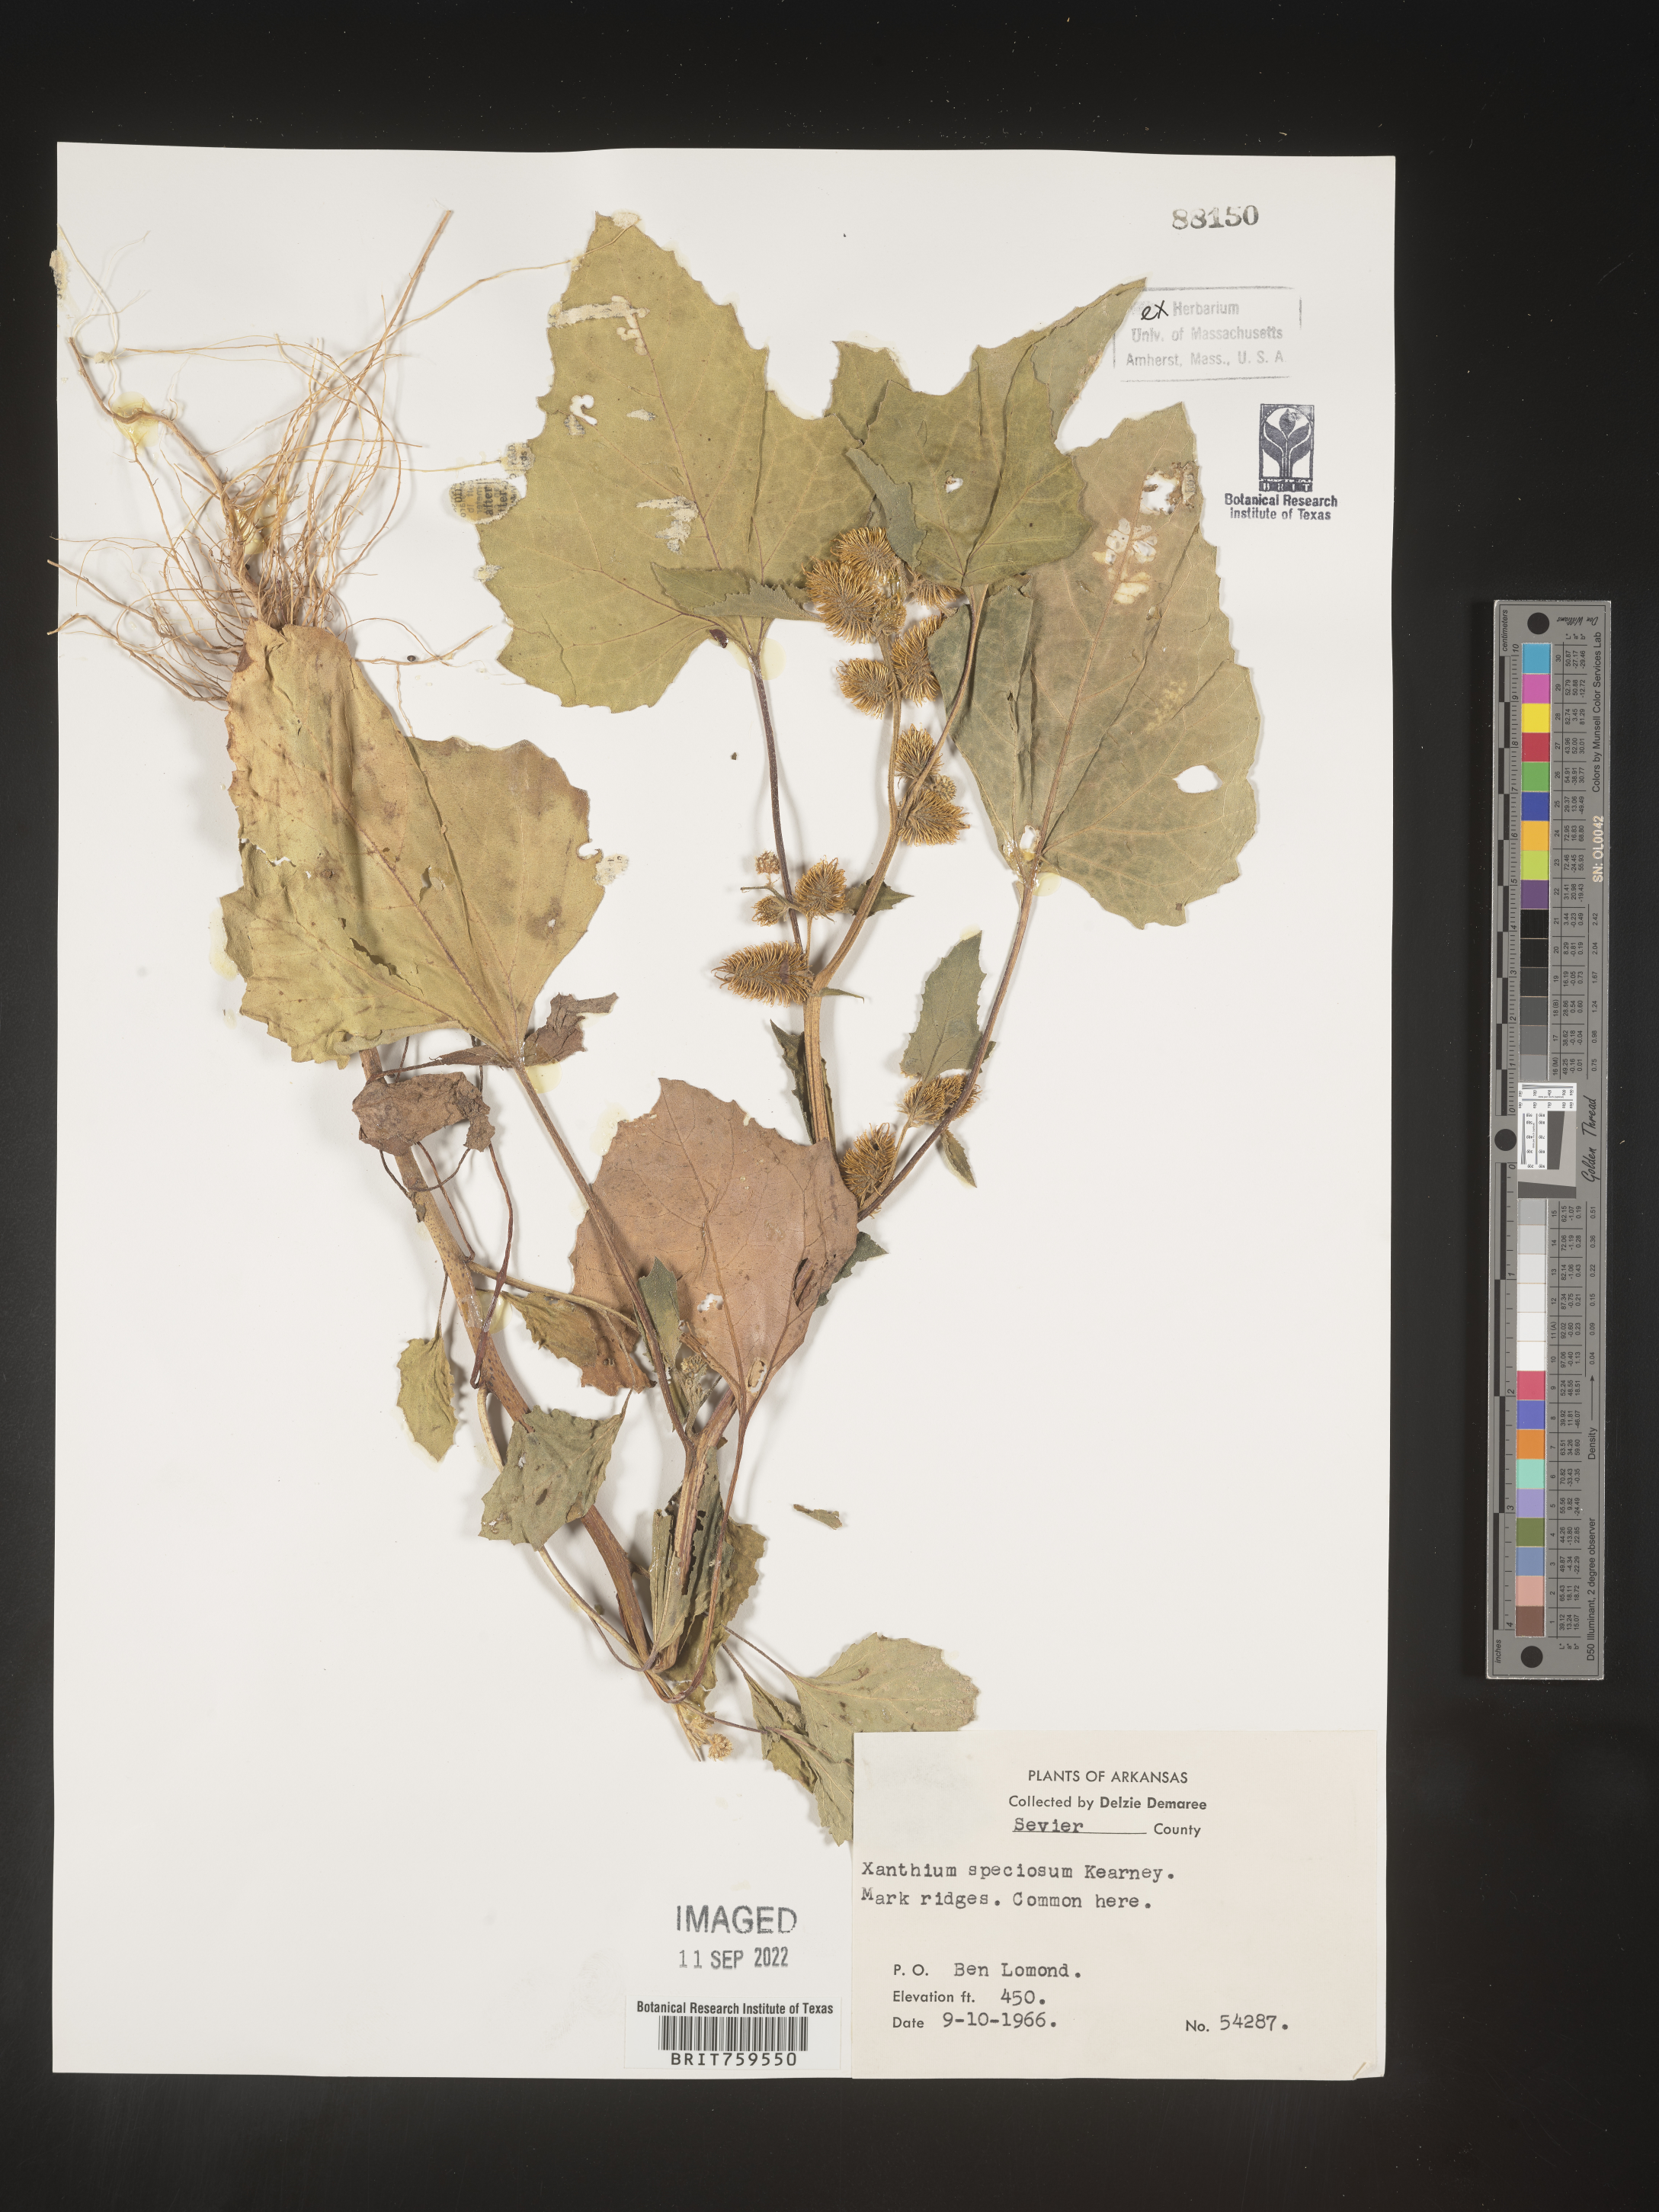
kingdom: Plantae
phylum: Tracheophyta
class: Magnoliopsida
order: Asterales
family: Asteraceae
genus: Xanthium
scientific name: Xanthium
